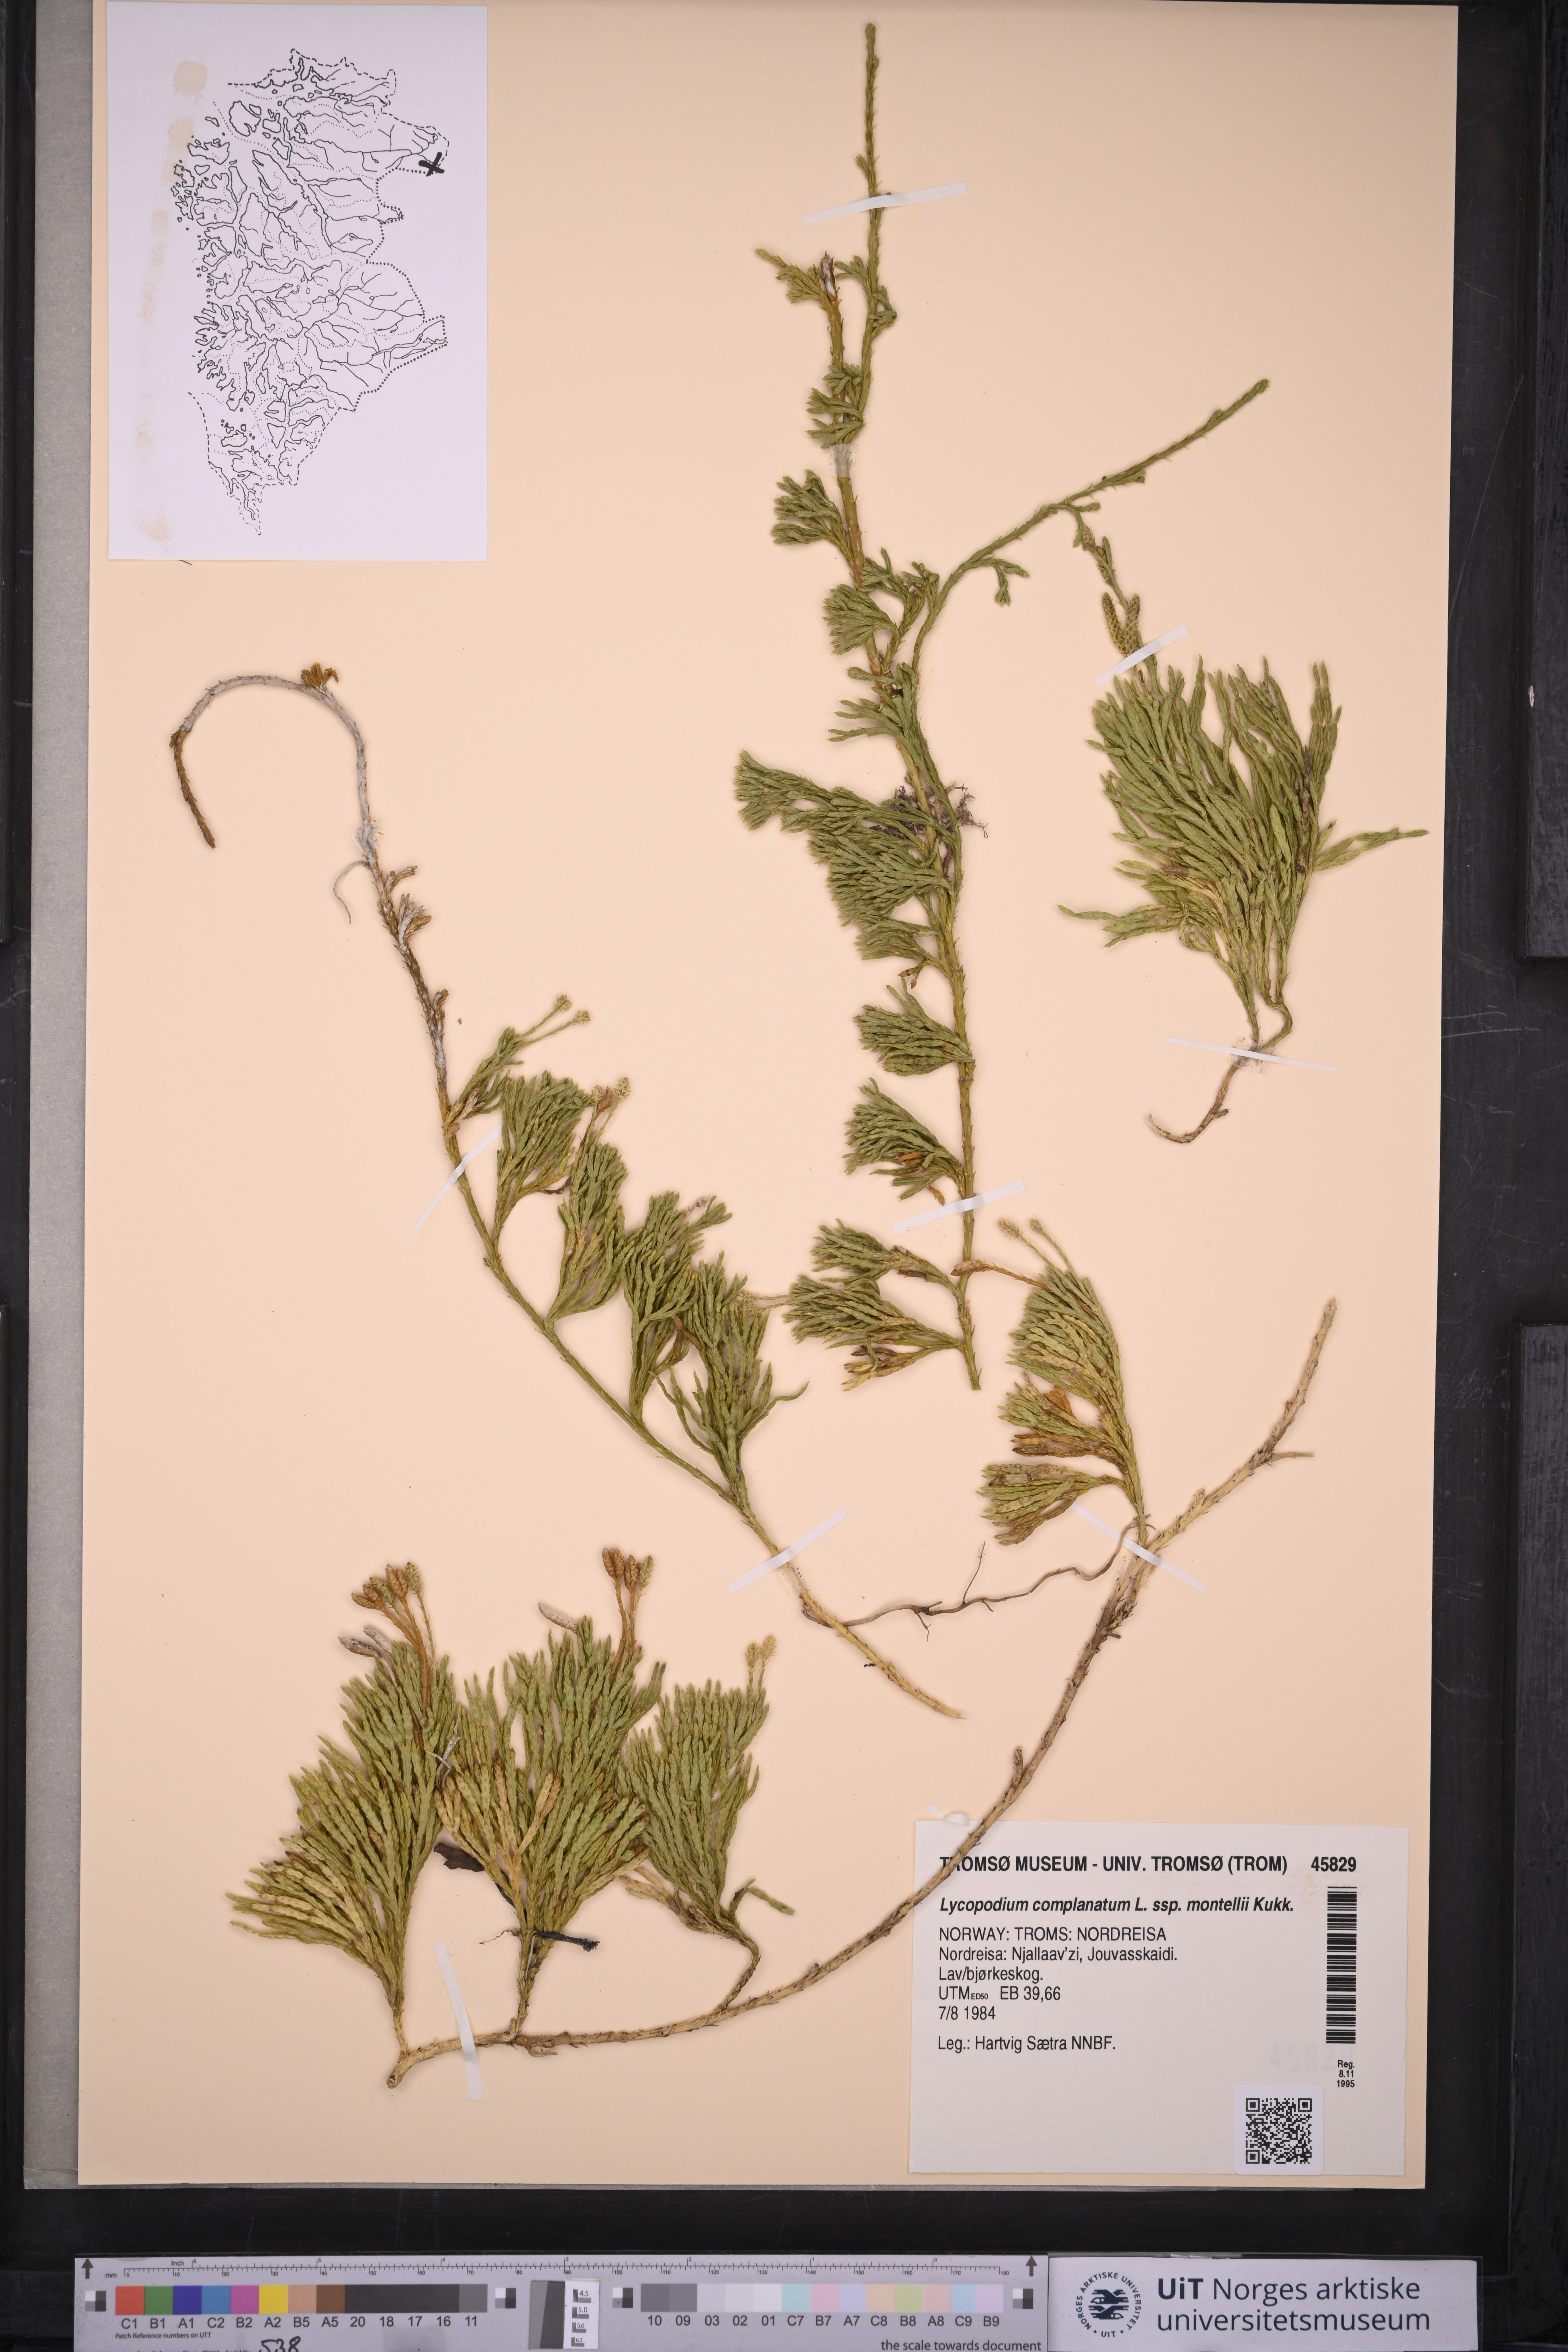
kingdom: Plantae
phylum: Tracheophyta
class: Lycopodiopsida
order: Lycopodiales
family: Lycopodiaceae
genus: Diphasiastrum
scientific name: Diphasiastrum complanatum
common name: Northern running-pine
